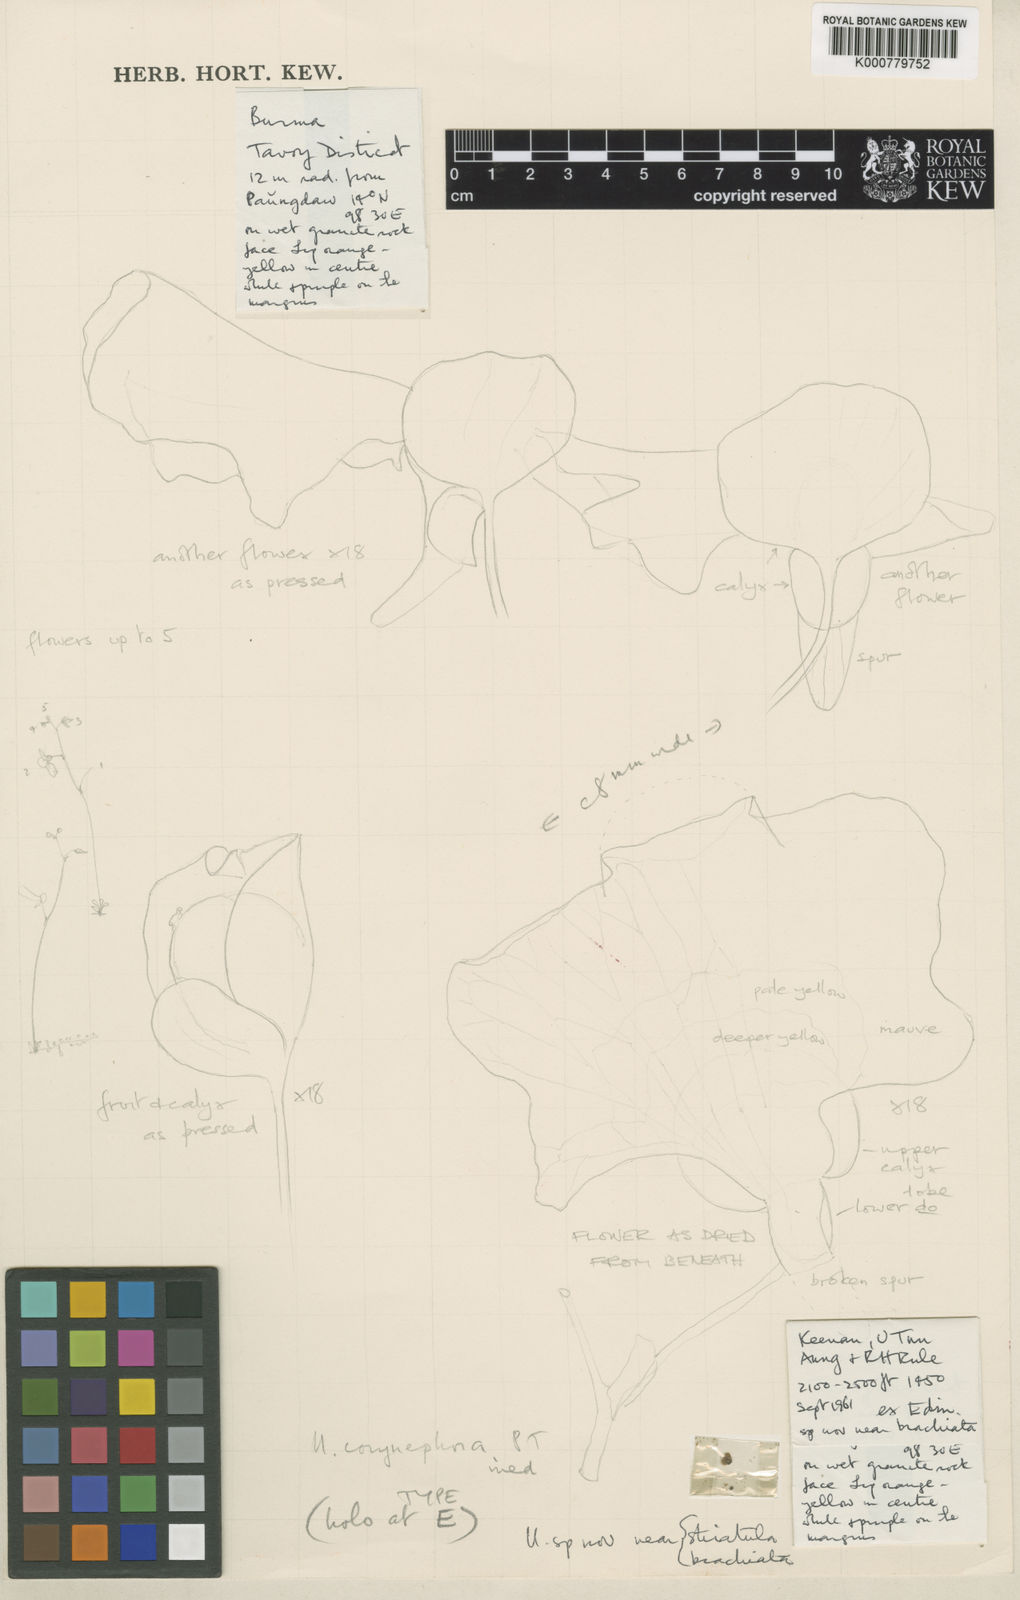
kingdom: Plantae
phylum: Tracheophyta
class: Magnoliopsida
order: Lamiales
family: Lentibulariaceae
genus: Utricularia
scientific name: Utricularia corynephora
